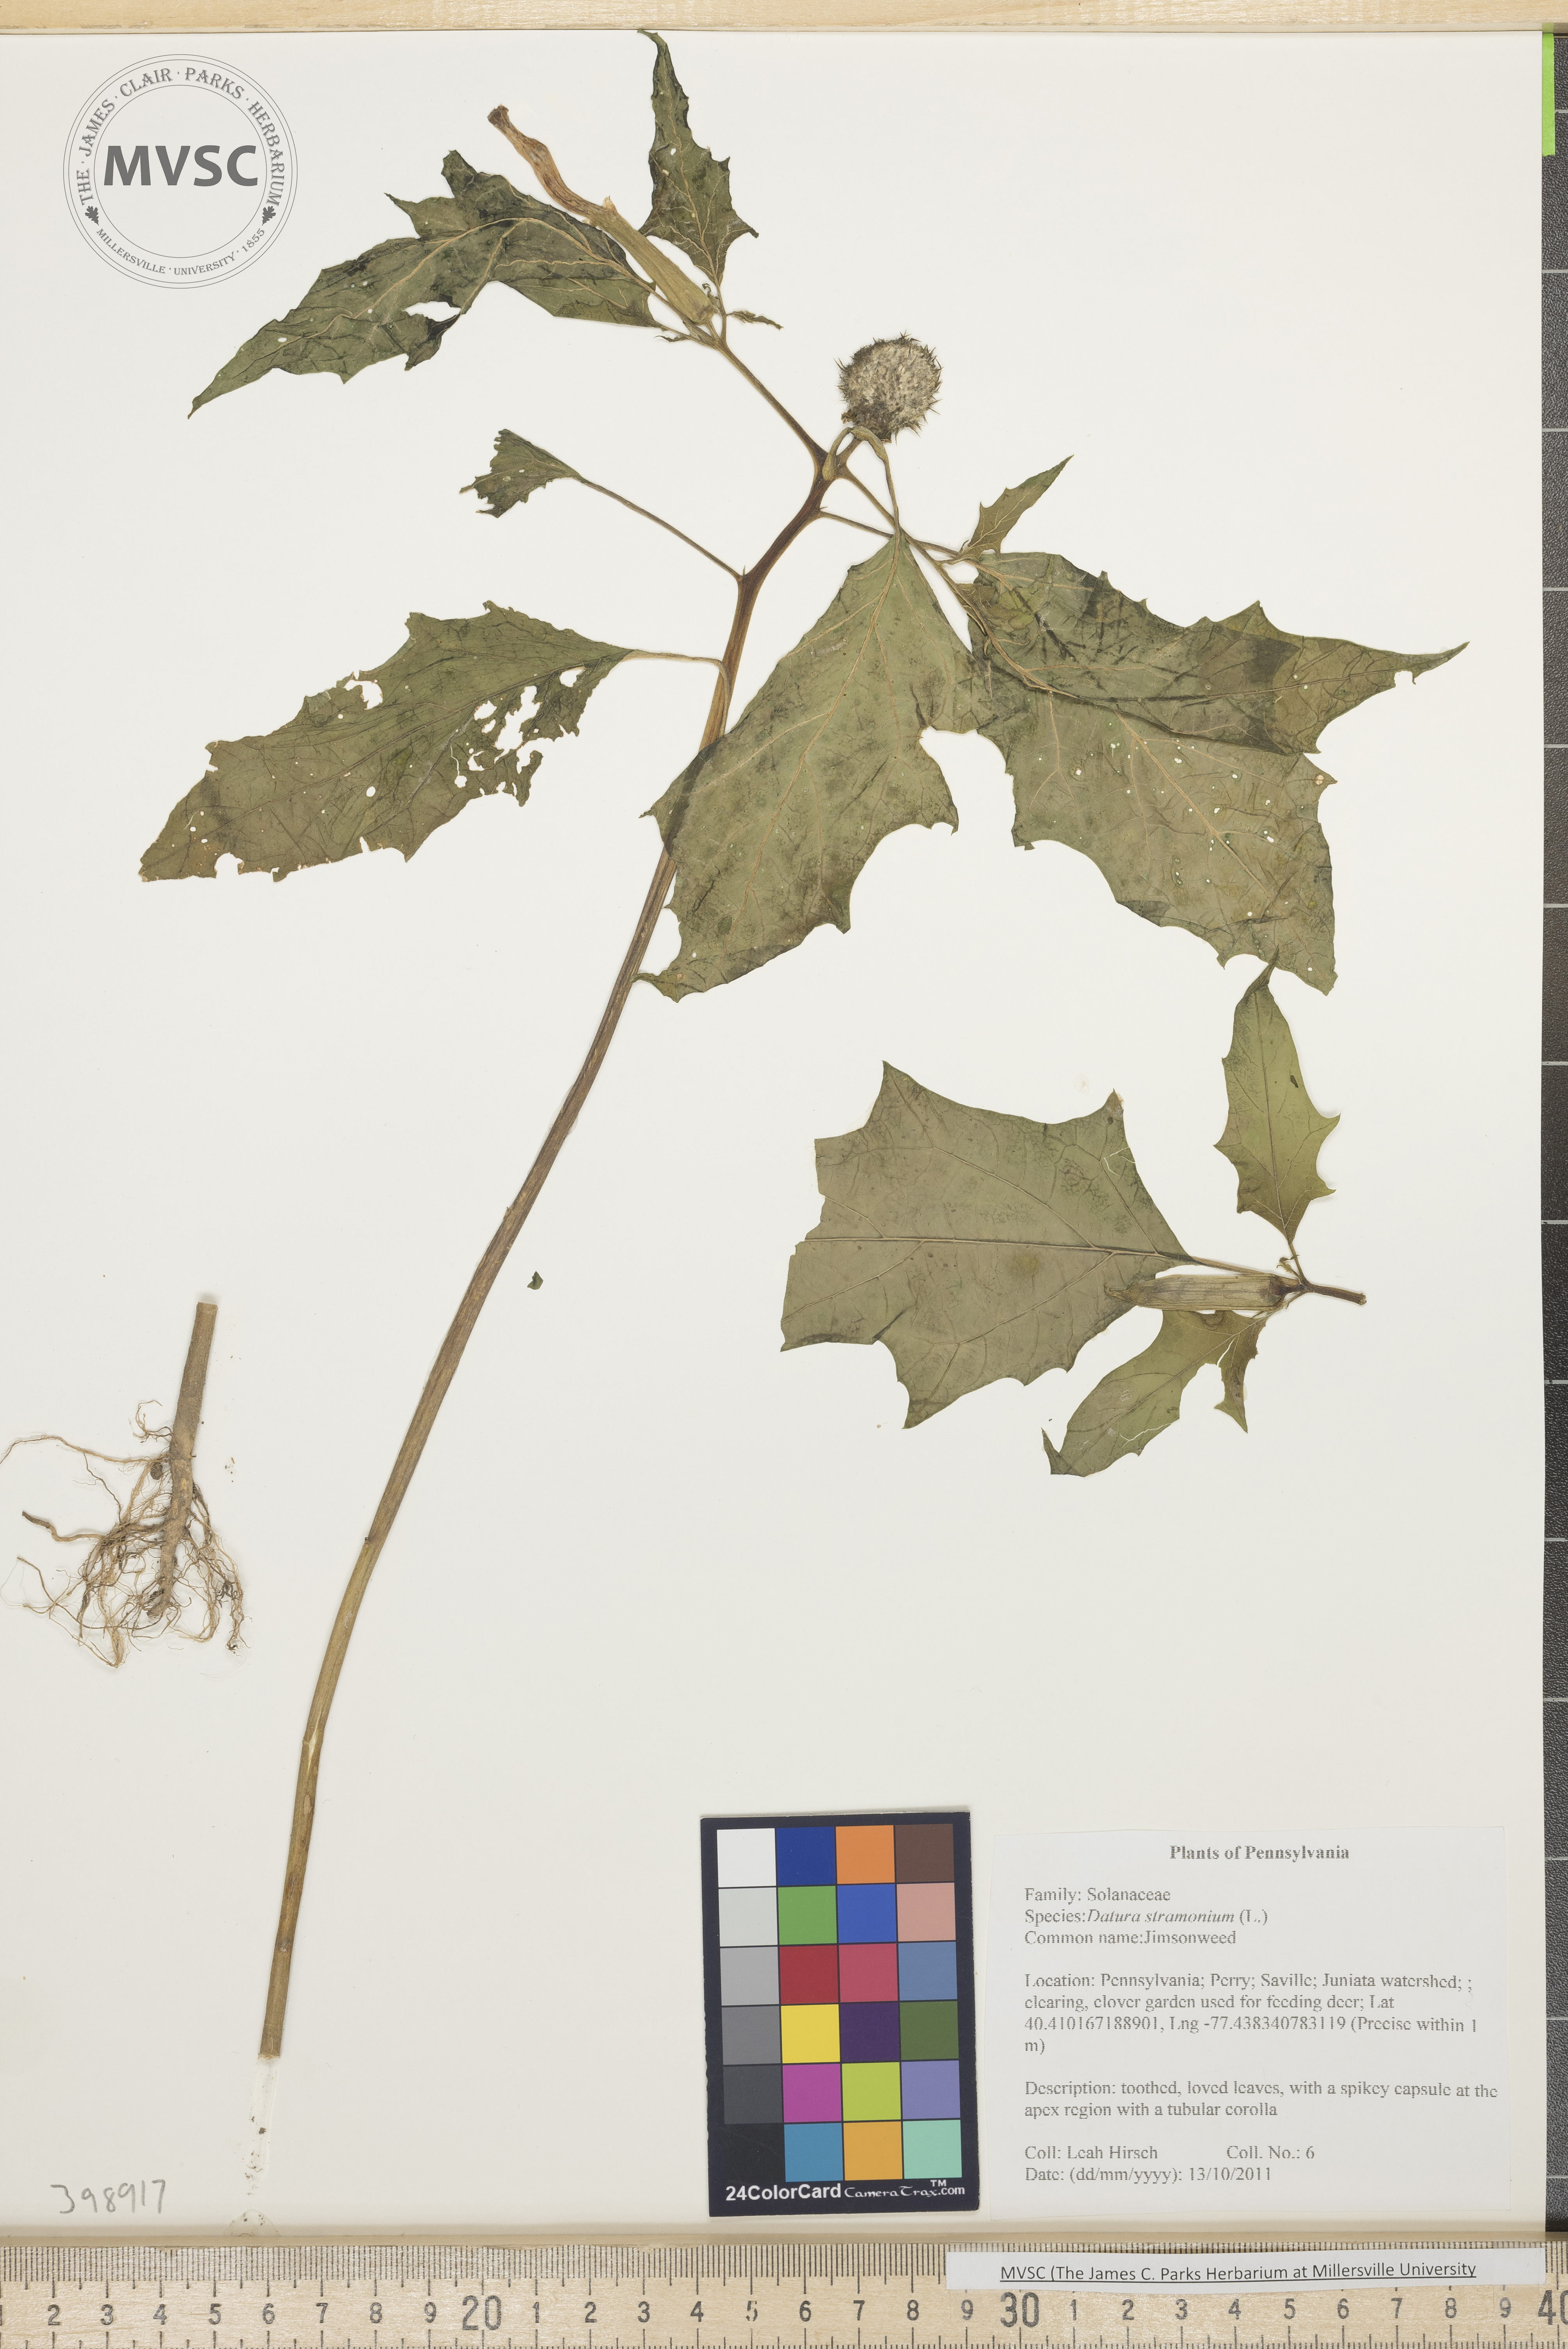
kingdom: Plantae
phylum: Tracheophyta
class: Magnoliopsida
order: Solanales
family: Solanaceae
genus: Datura
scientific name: Datura stramonium
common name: Jimsonweed
